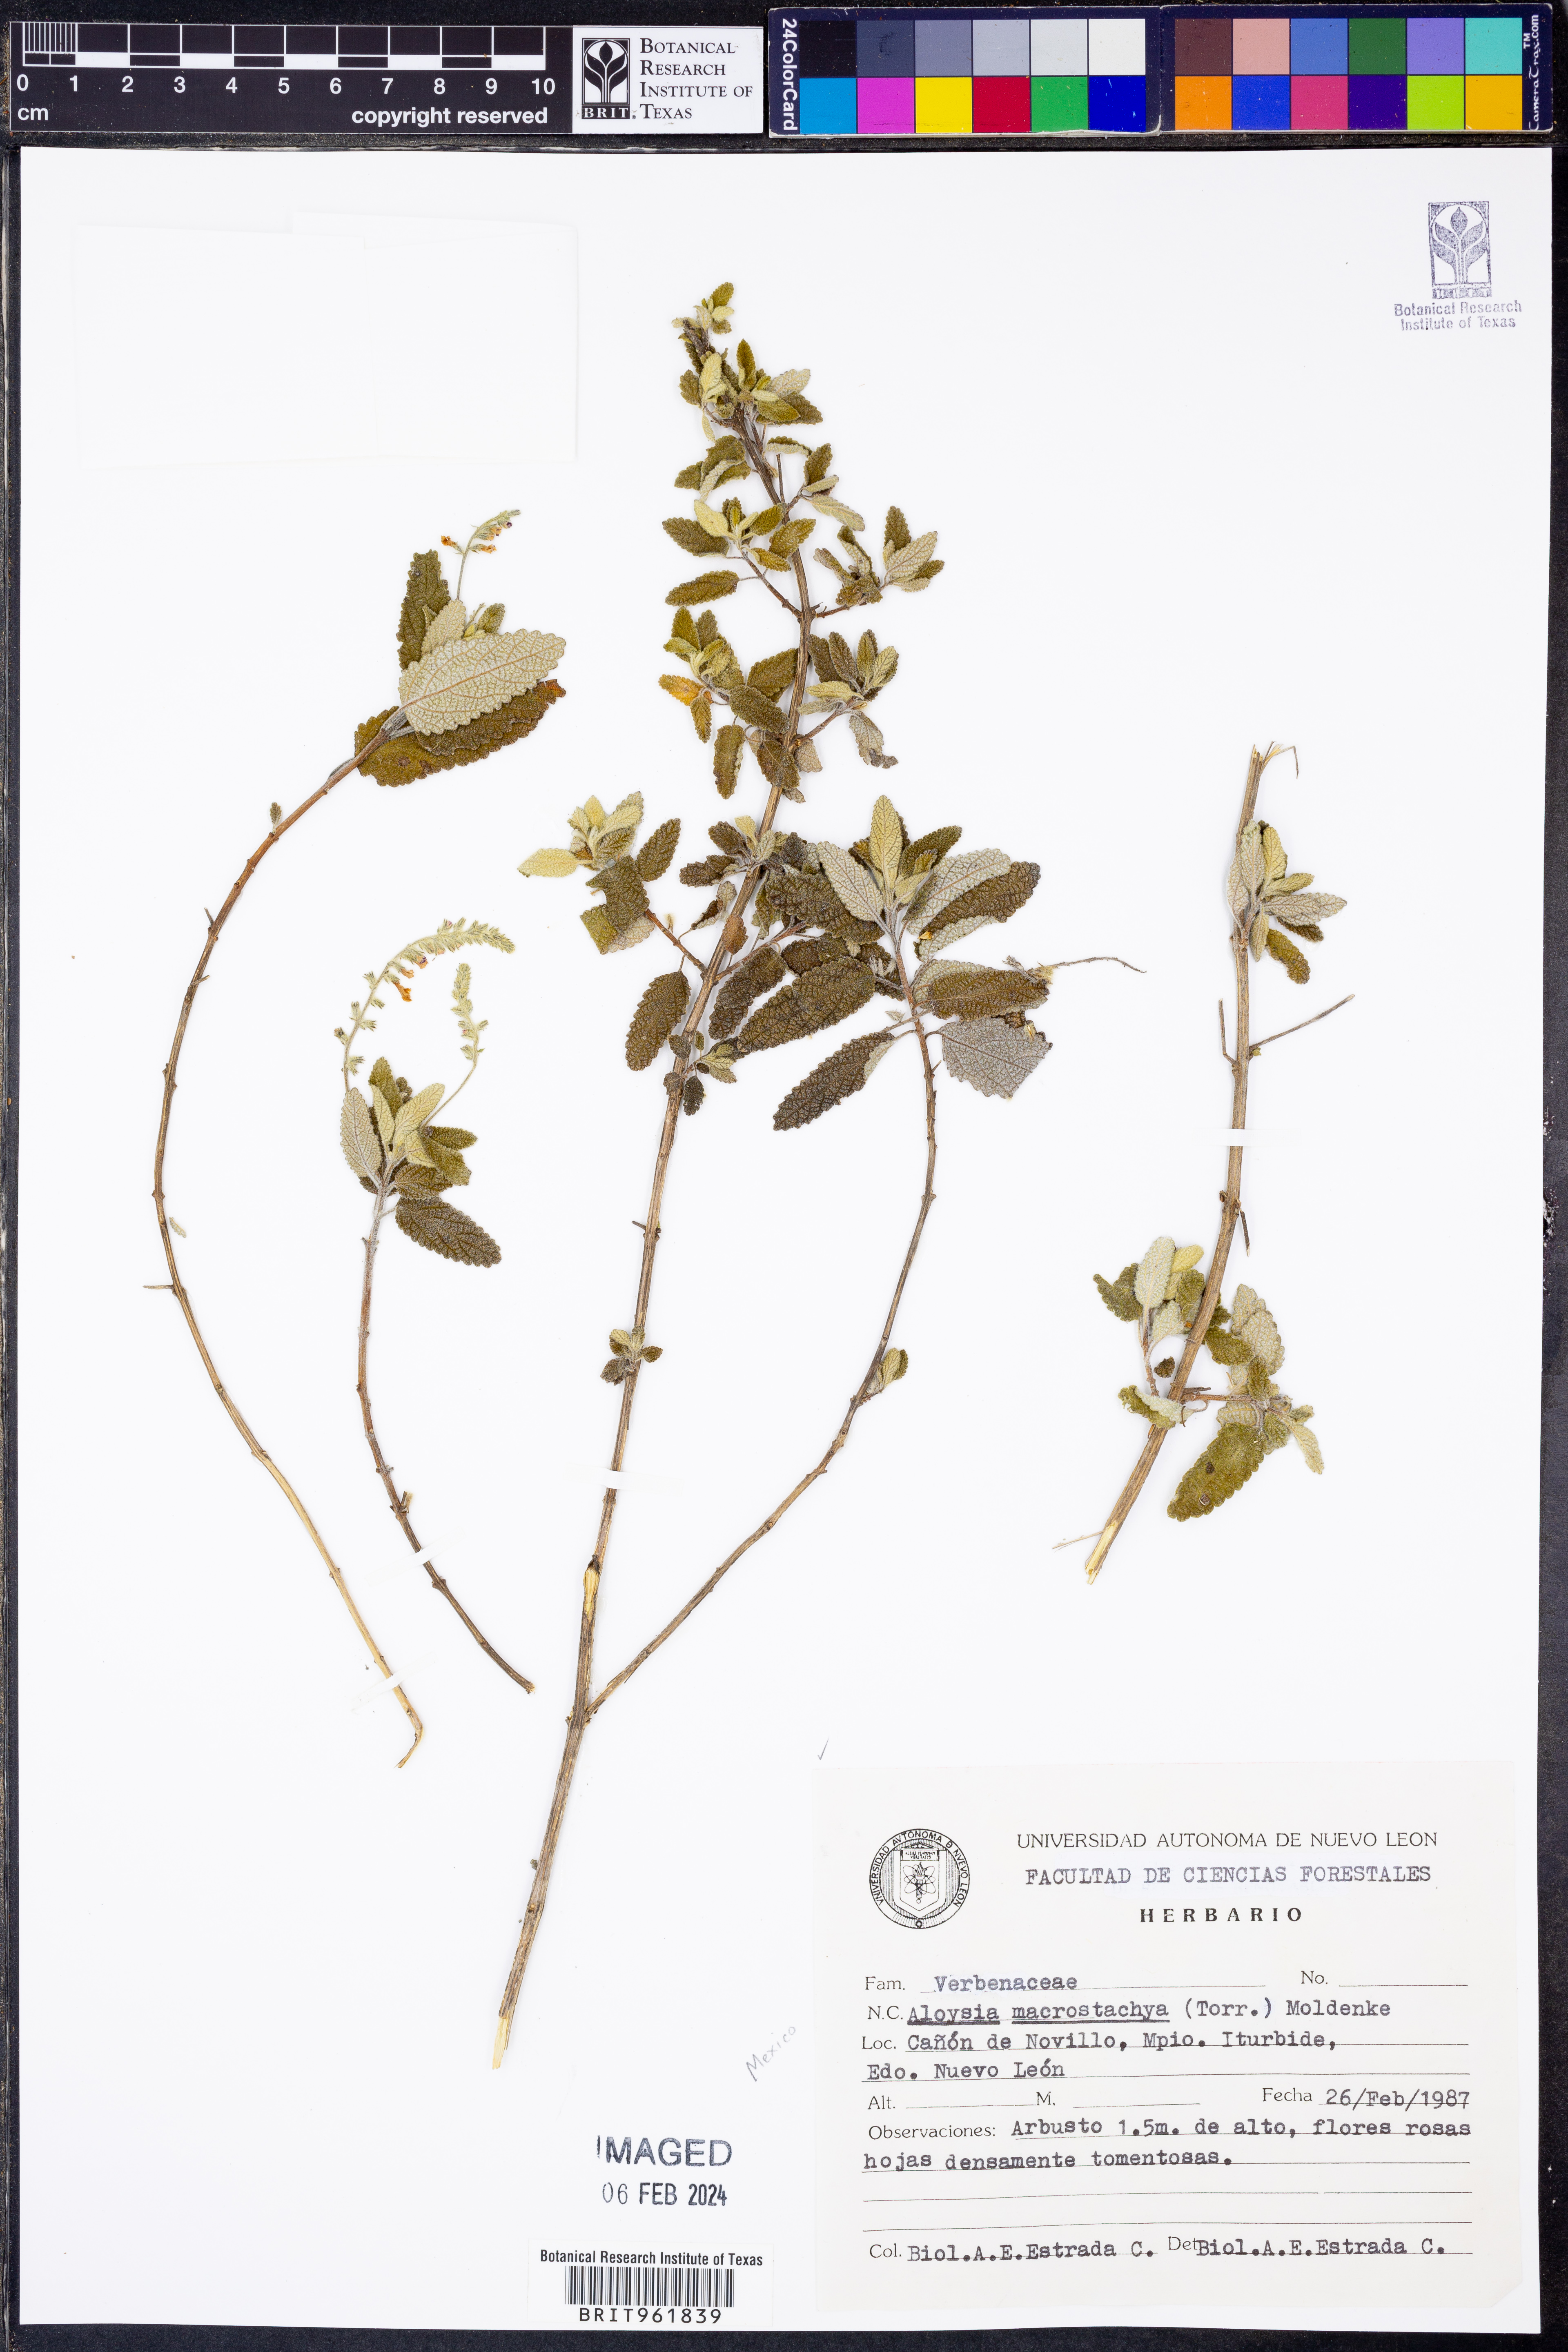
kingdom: Plantae
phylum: Tracheophyta
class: Magnoliopsida
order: Lamiales
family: Verbenaceae
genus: Aloysia
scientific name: Aloysia
